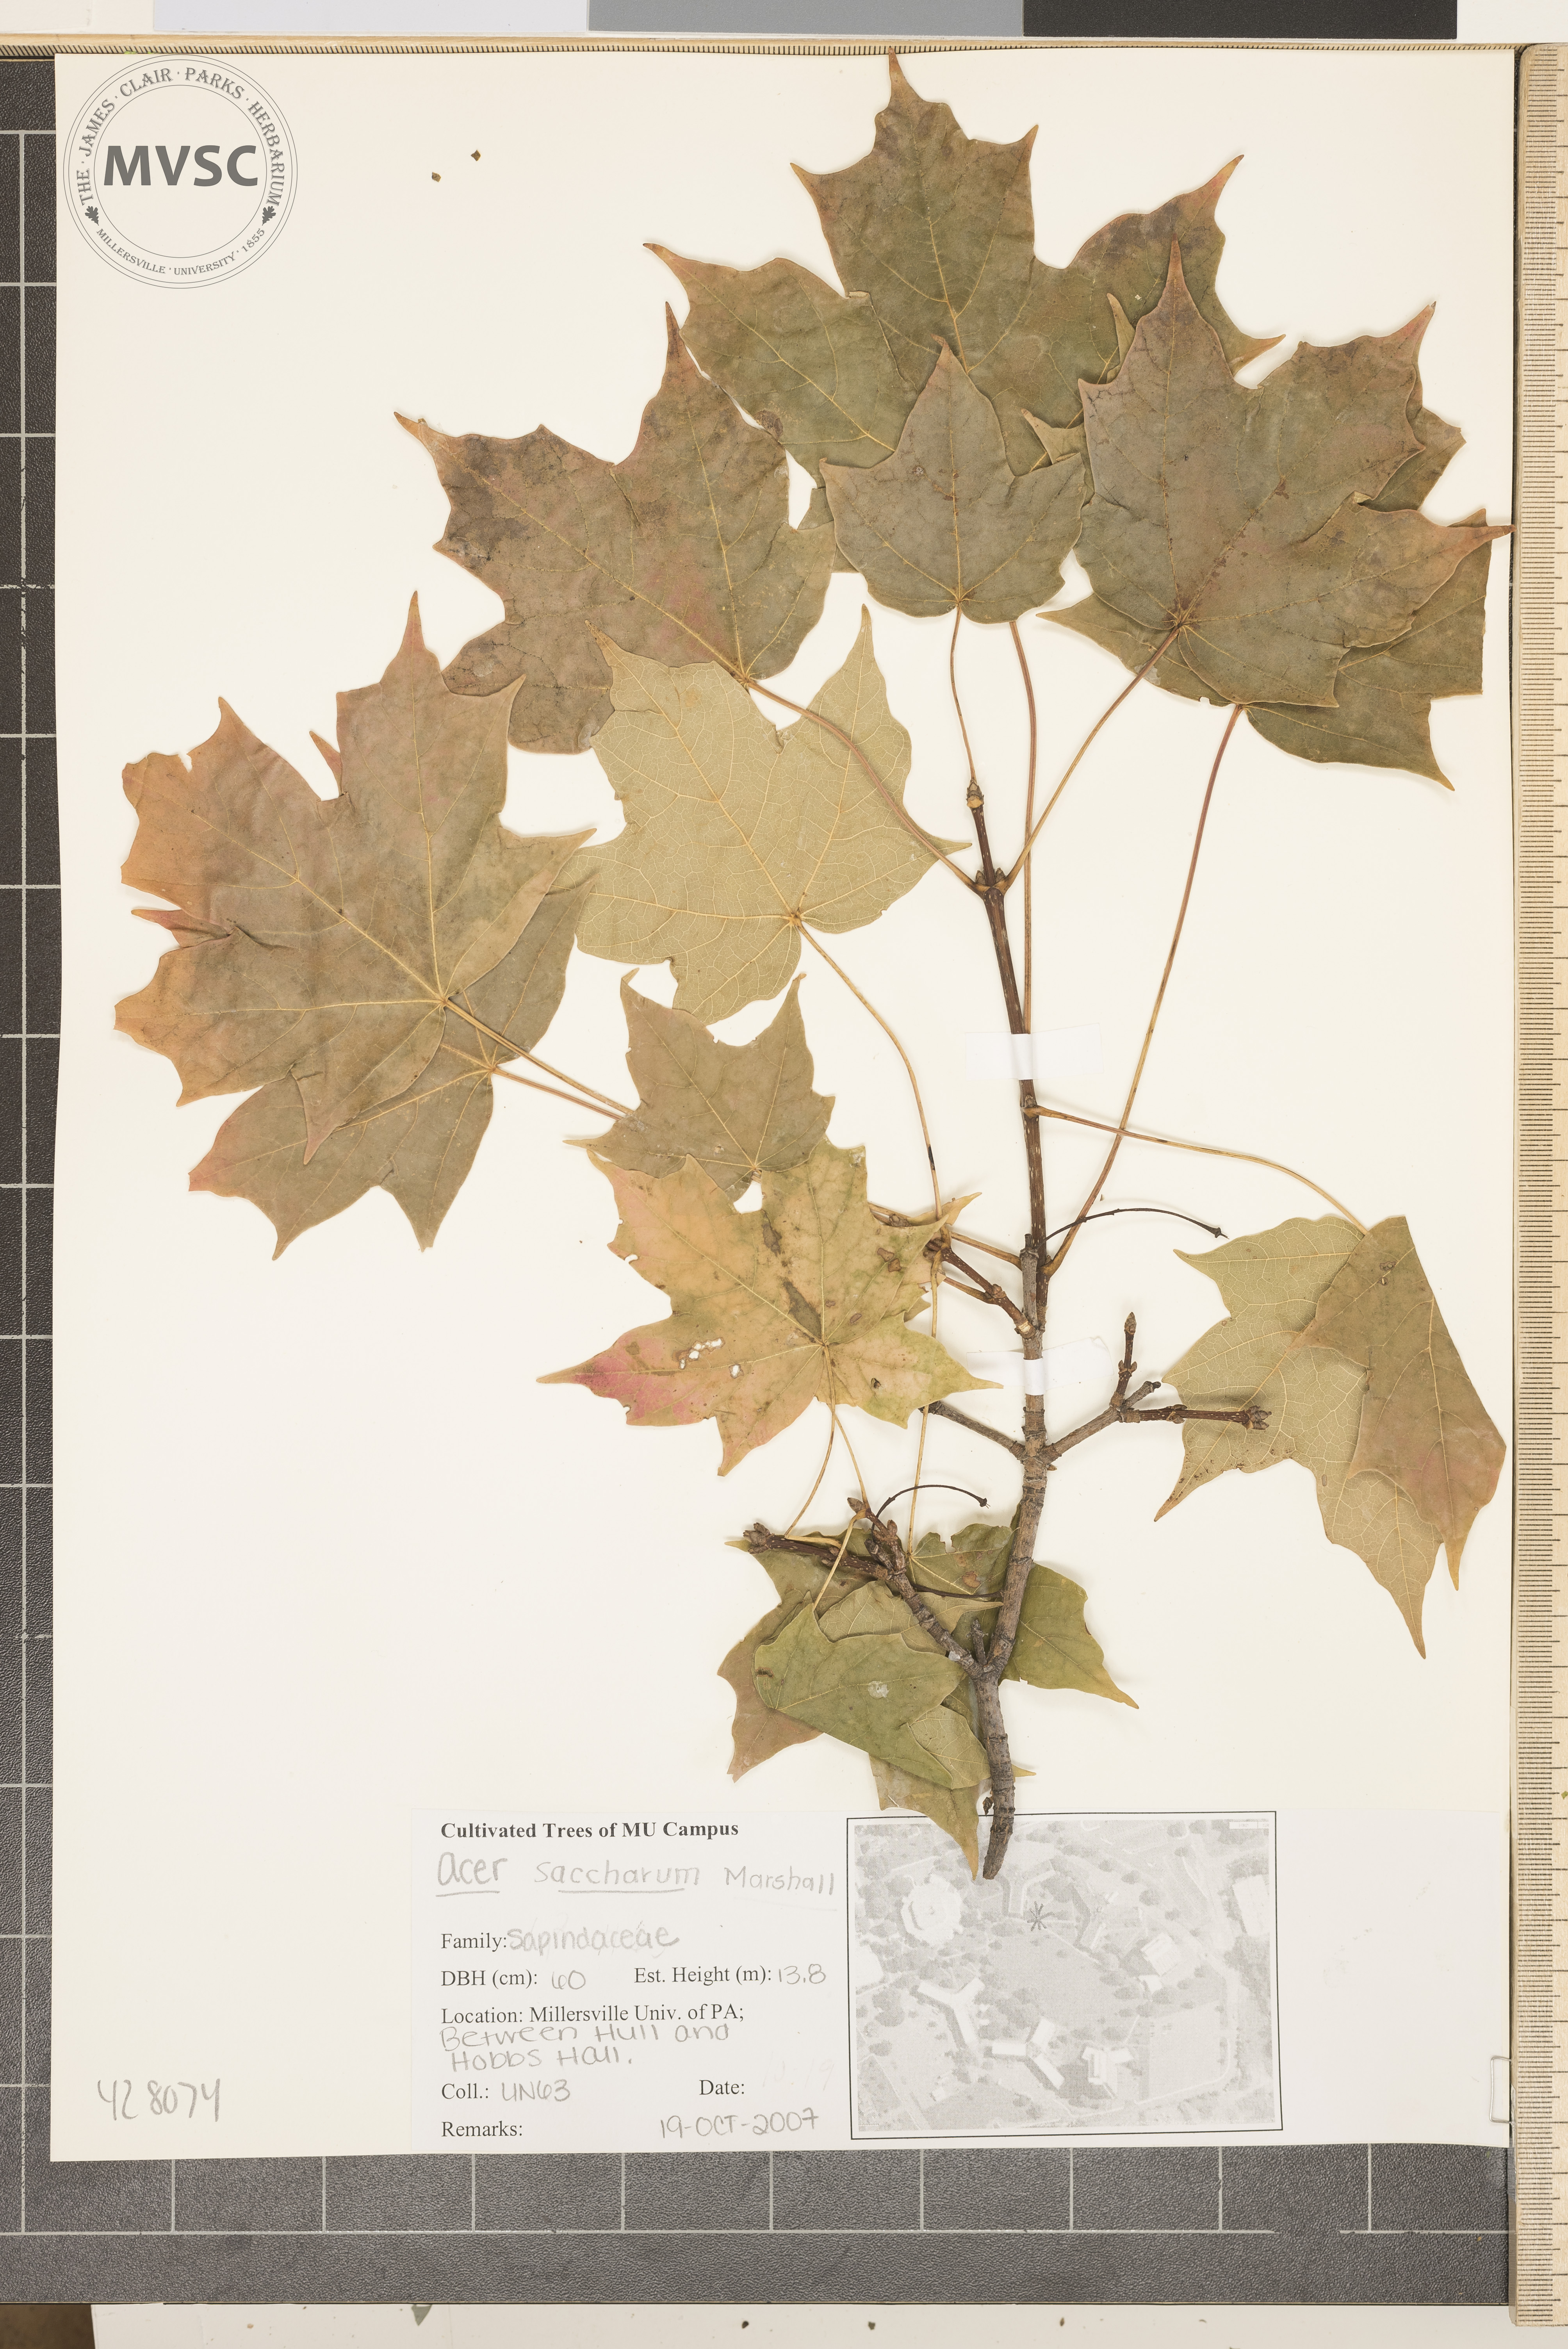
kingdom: Plantae
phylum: Tracheophyta
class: Magnoliopsida
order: Sapindales
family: Sapindaceae
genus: Acer
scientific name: Acer saccharum
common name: Sugar Maple
